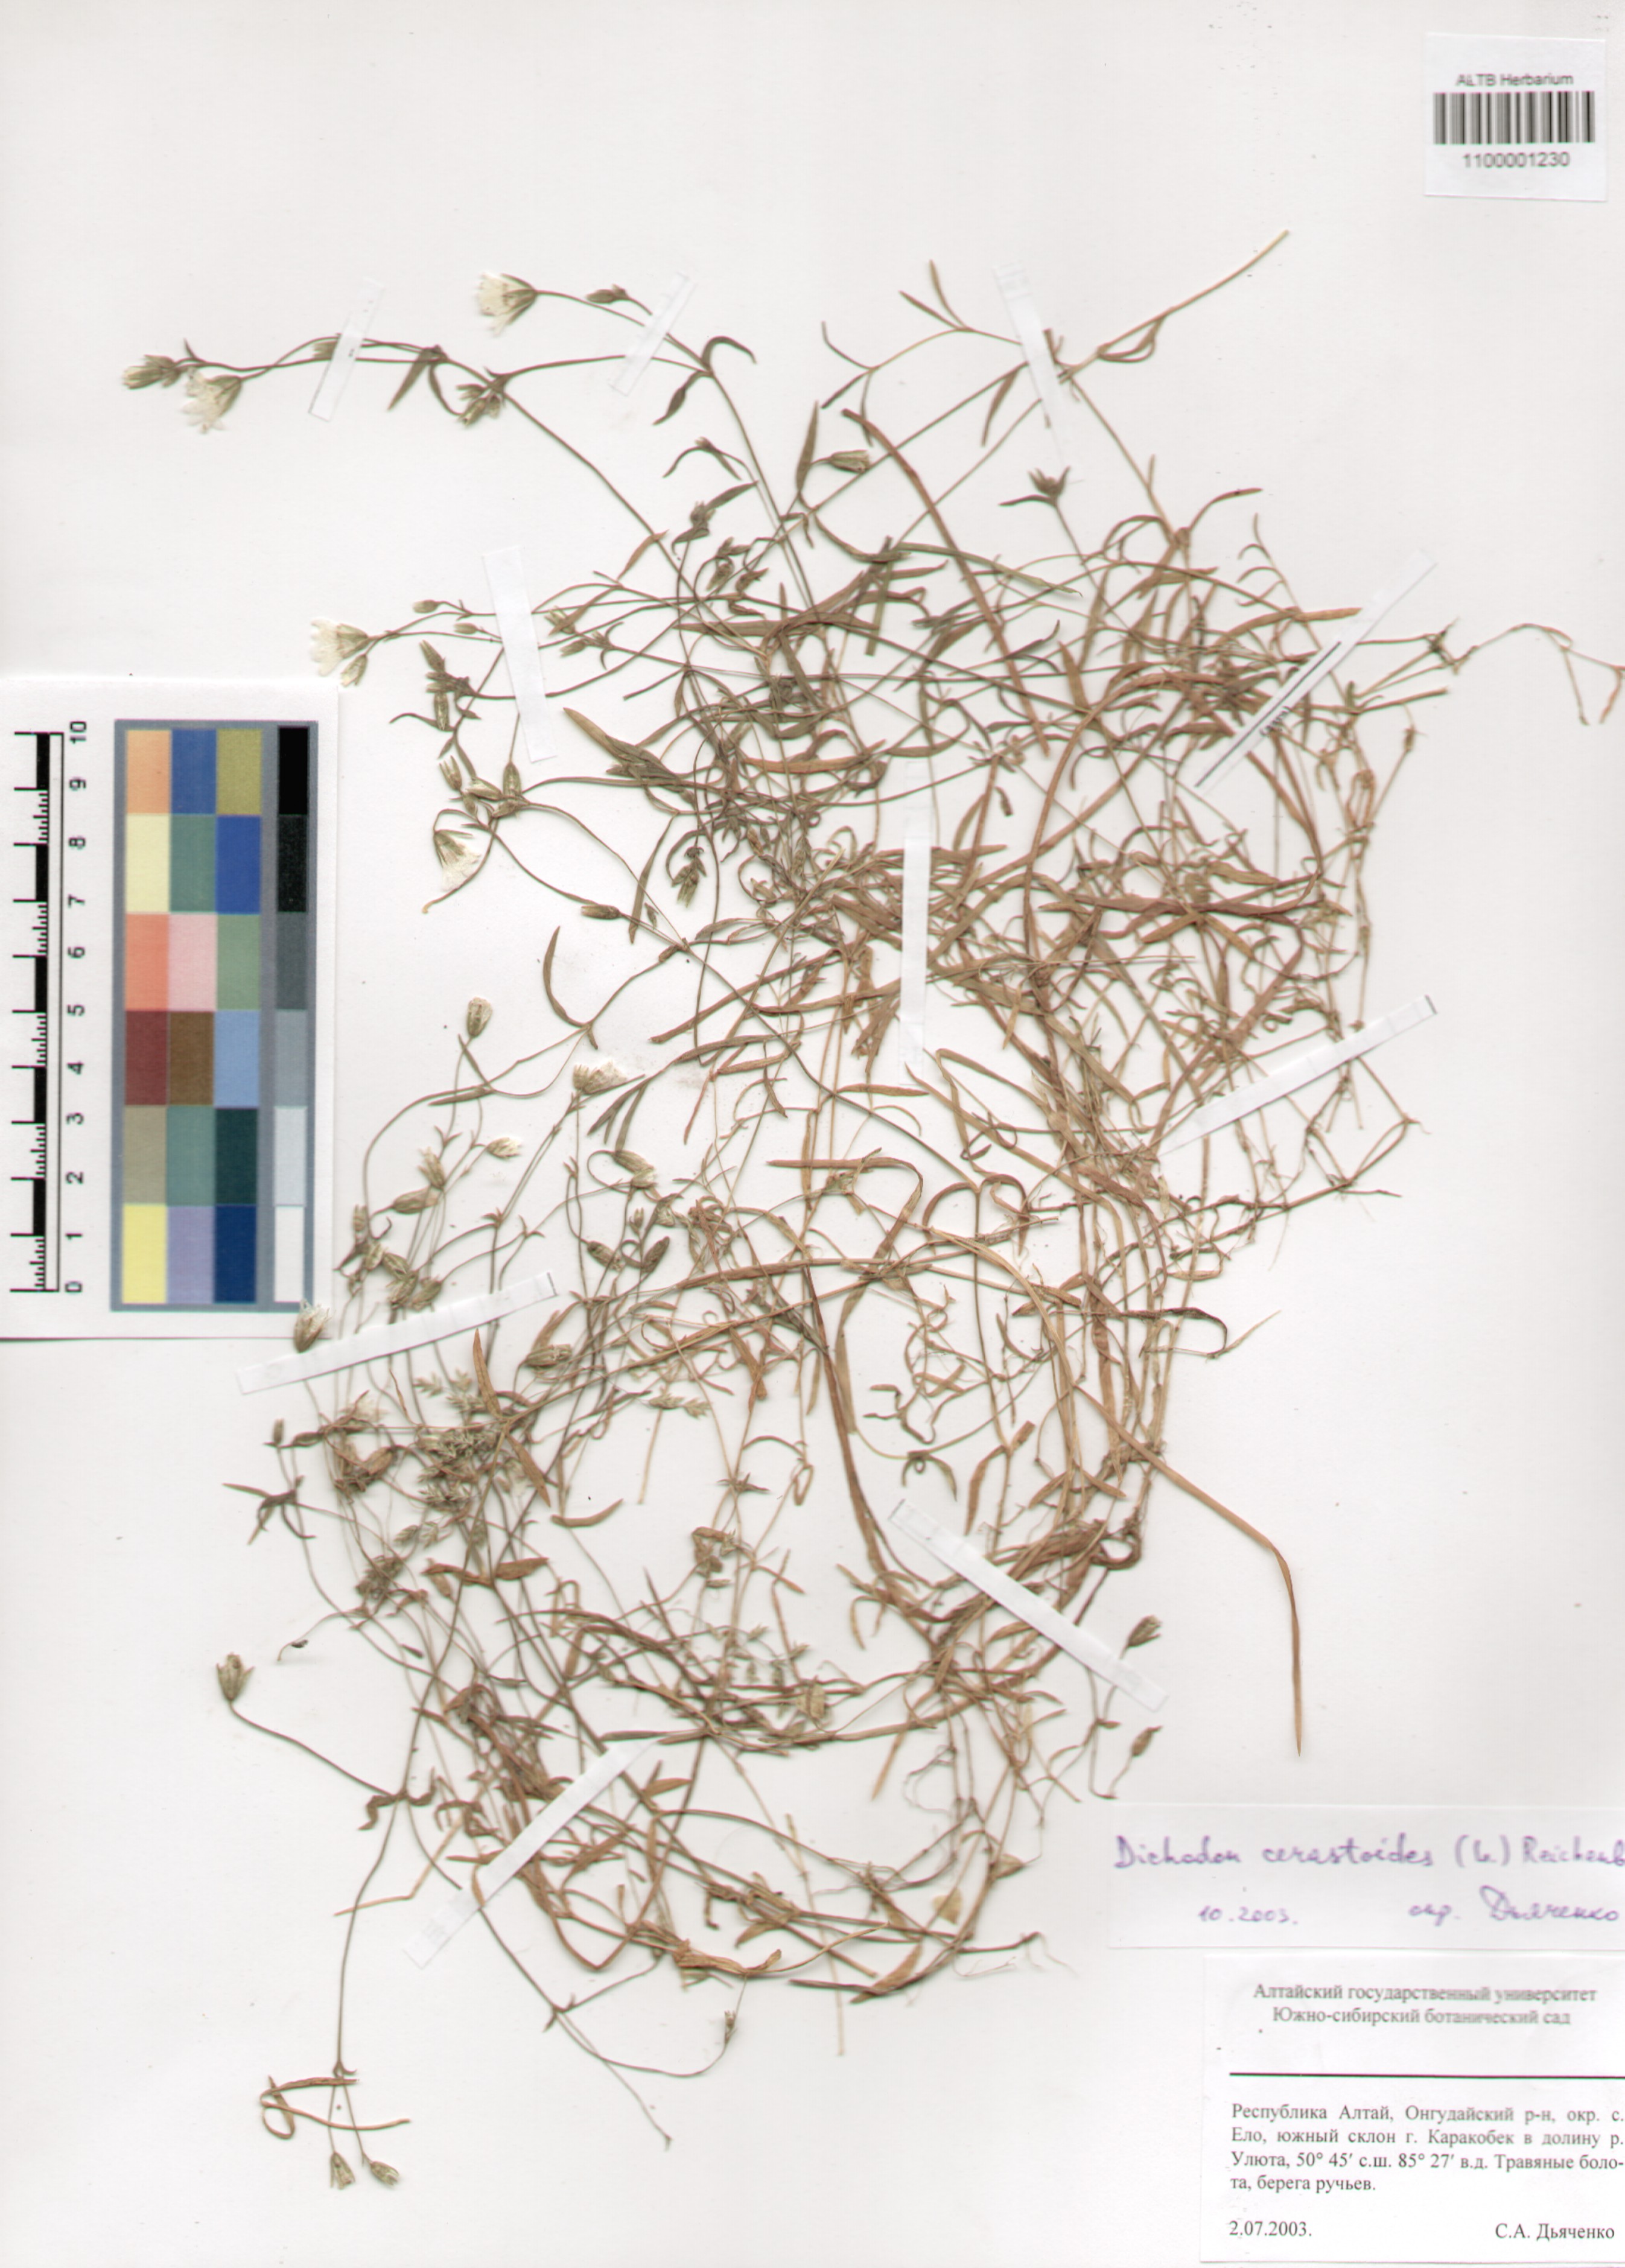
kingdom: Plantae
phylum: Tracheophyta
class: Magnoliopsida
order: Caryophyllales
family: Caryophyllaceae
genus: Dichodon
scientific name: Dichodon cerastoides
